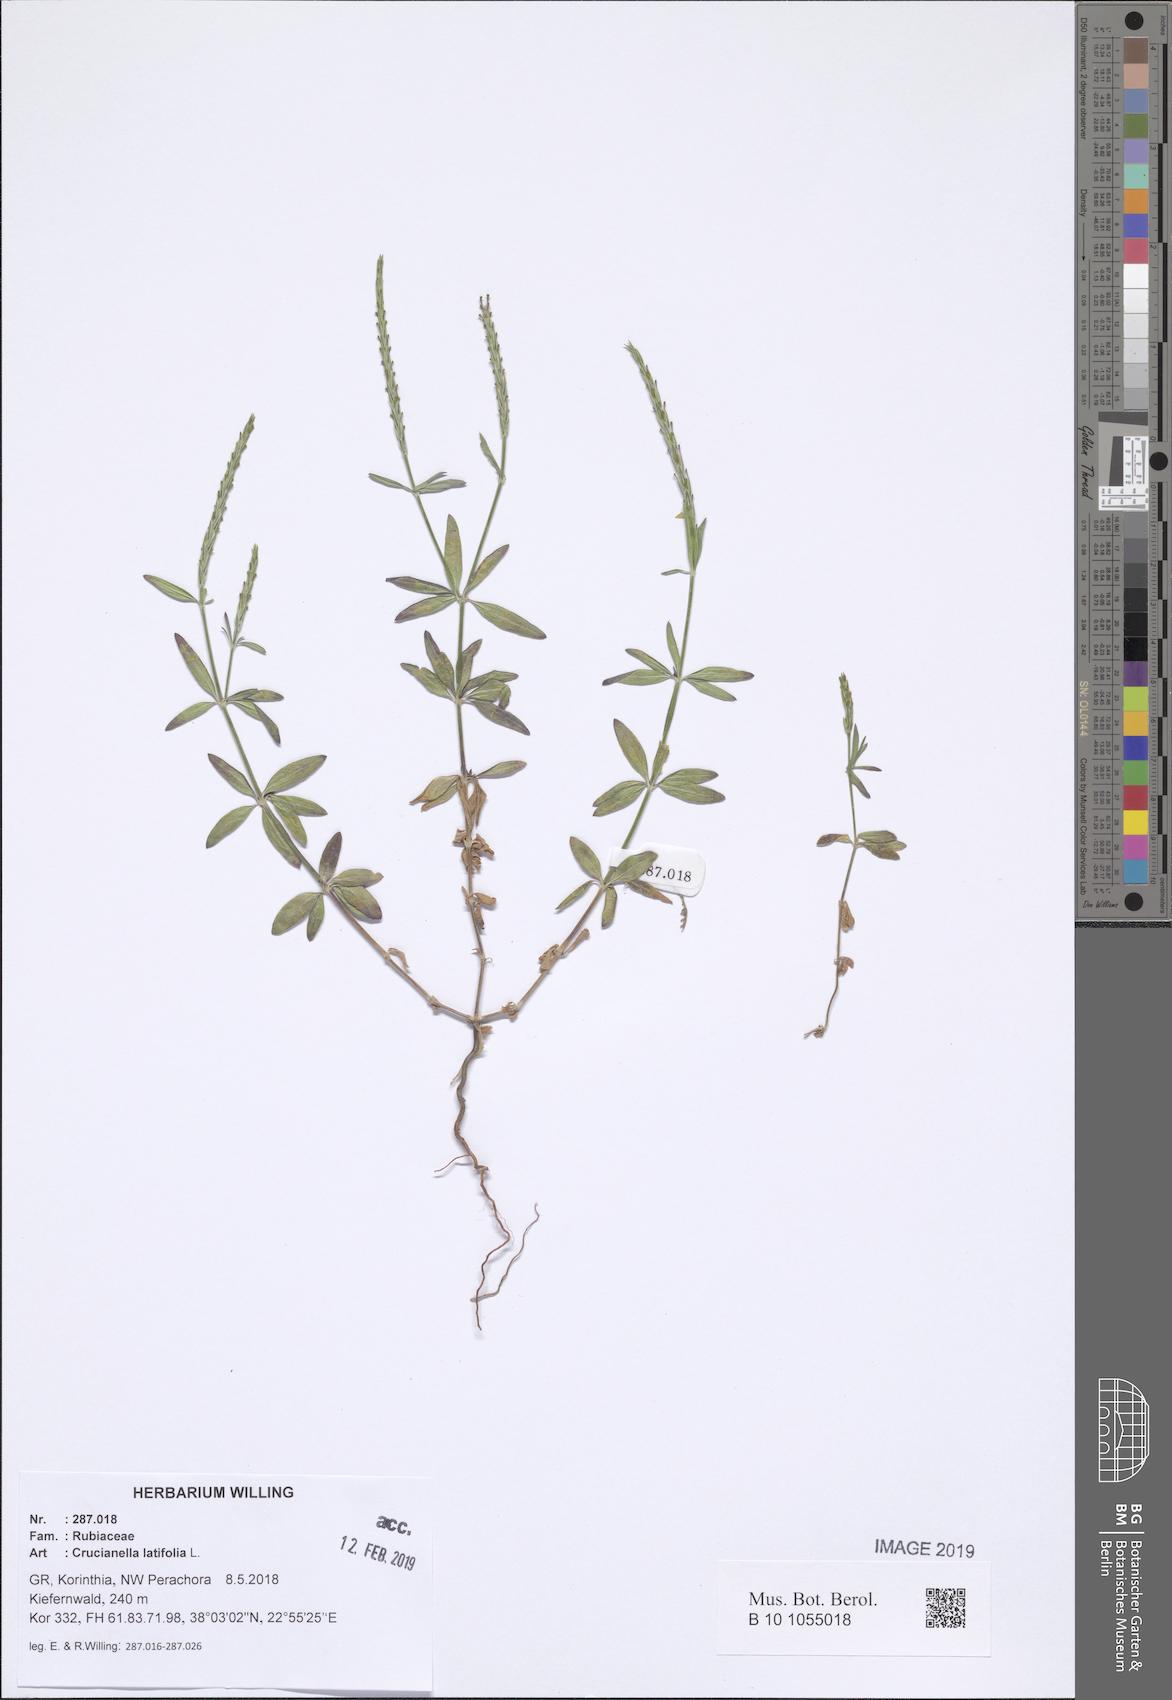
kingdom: Plantae
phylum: Tracheophyta
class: Magnoliopsida
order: Gentianales
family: Rubiaceae
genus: Crucianella
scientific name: Crucianella latifolia
